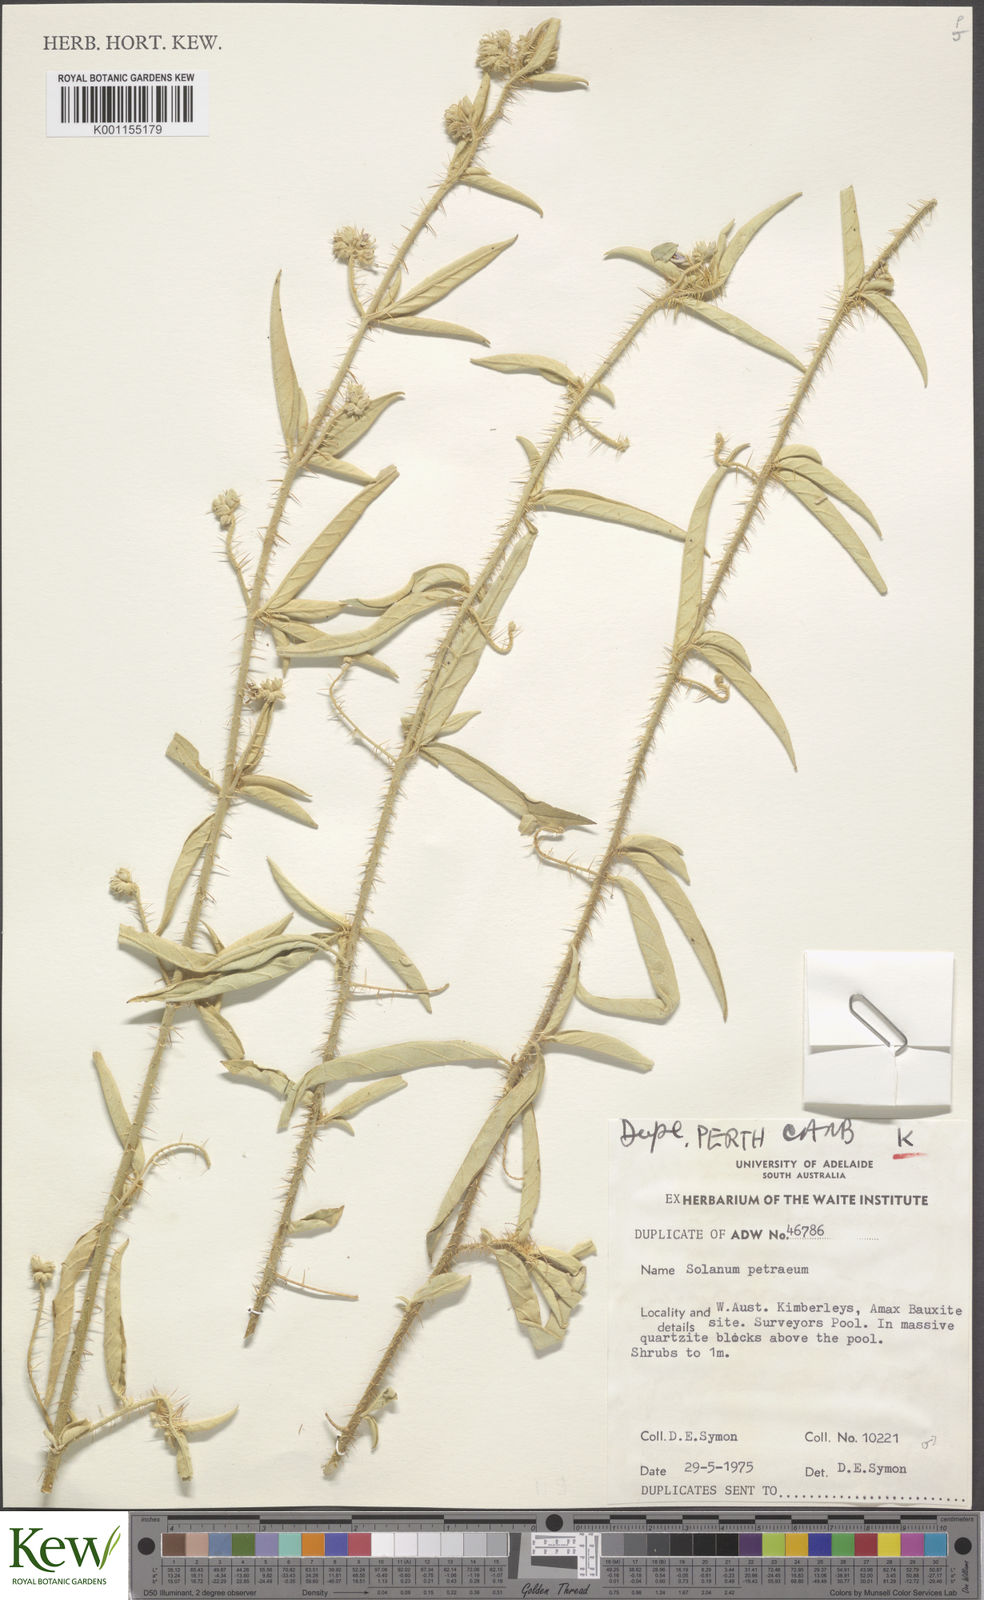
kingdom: Plantae
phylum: Tracheophyta
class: Magnoliopsida
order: Solanales
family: Solanaceae
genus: Solanum
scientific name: Solanum petraeum
